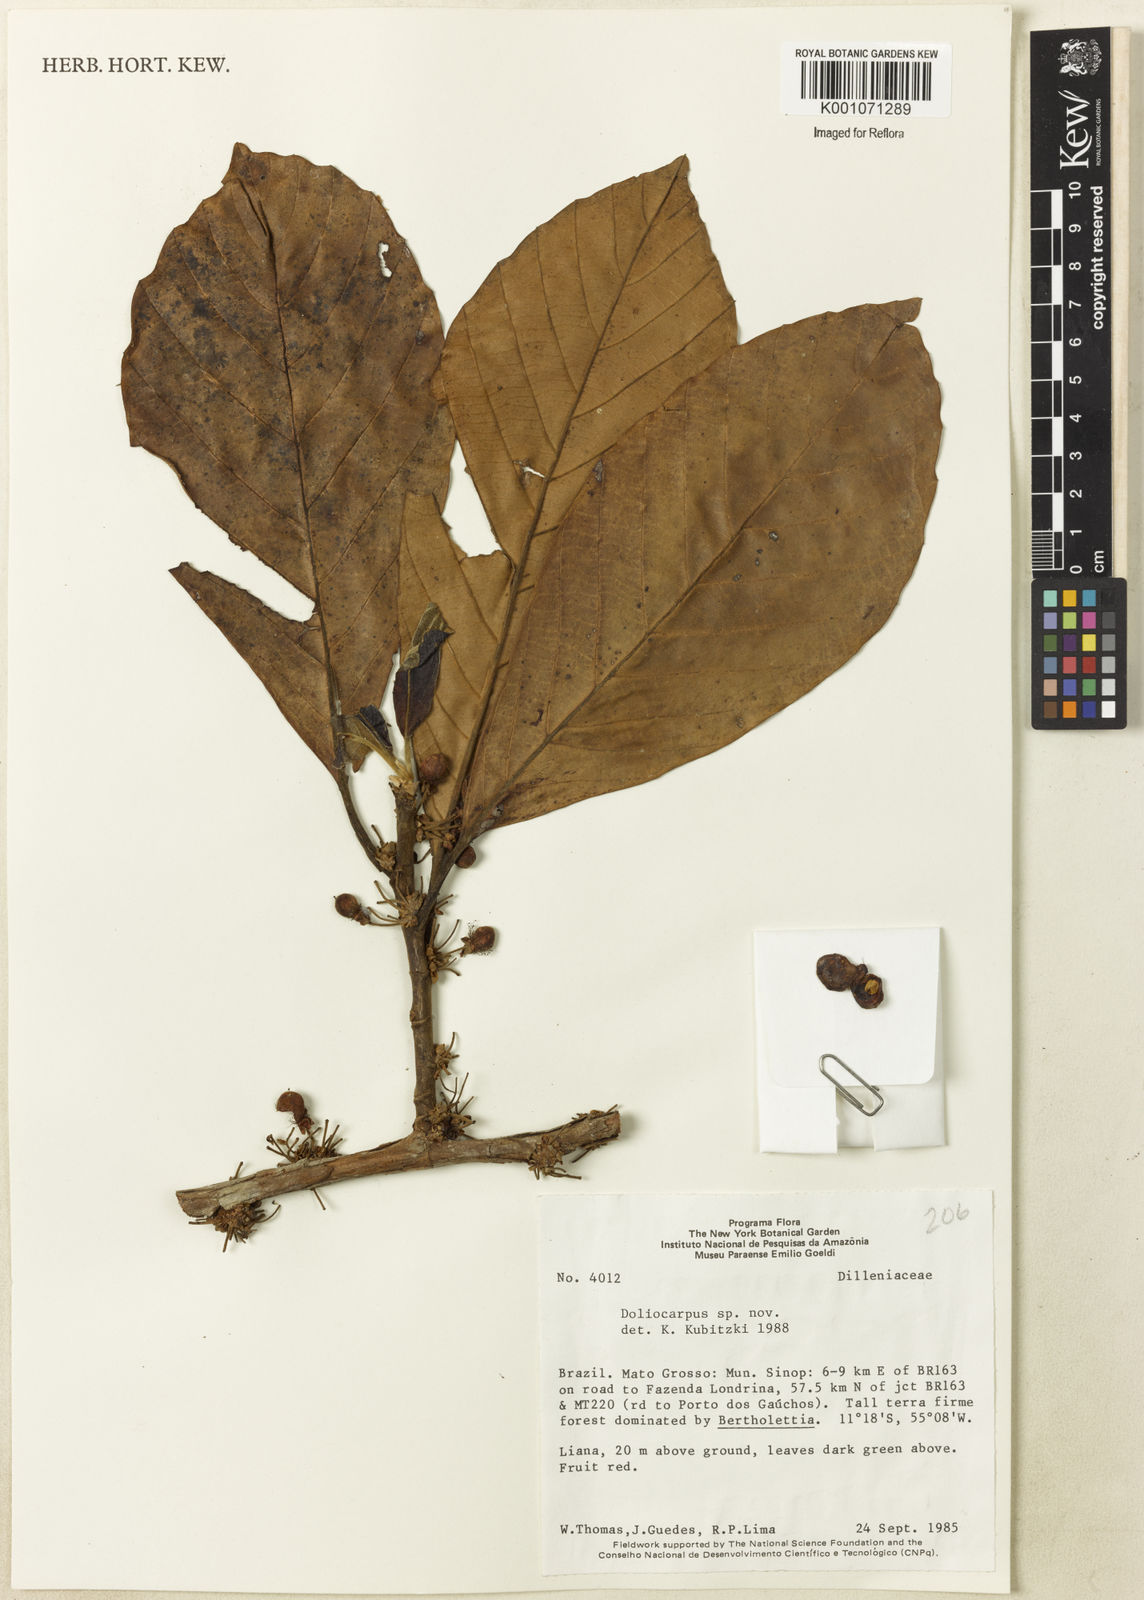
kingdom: Plantae
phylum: Tracheophyta
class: Magnoliopsida
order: Dilleniales
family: Dilleniaceae
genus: Doliocarpus
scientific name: Doliocarpus
